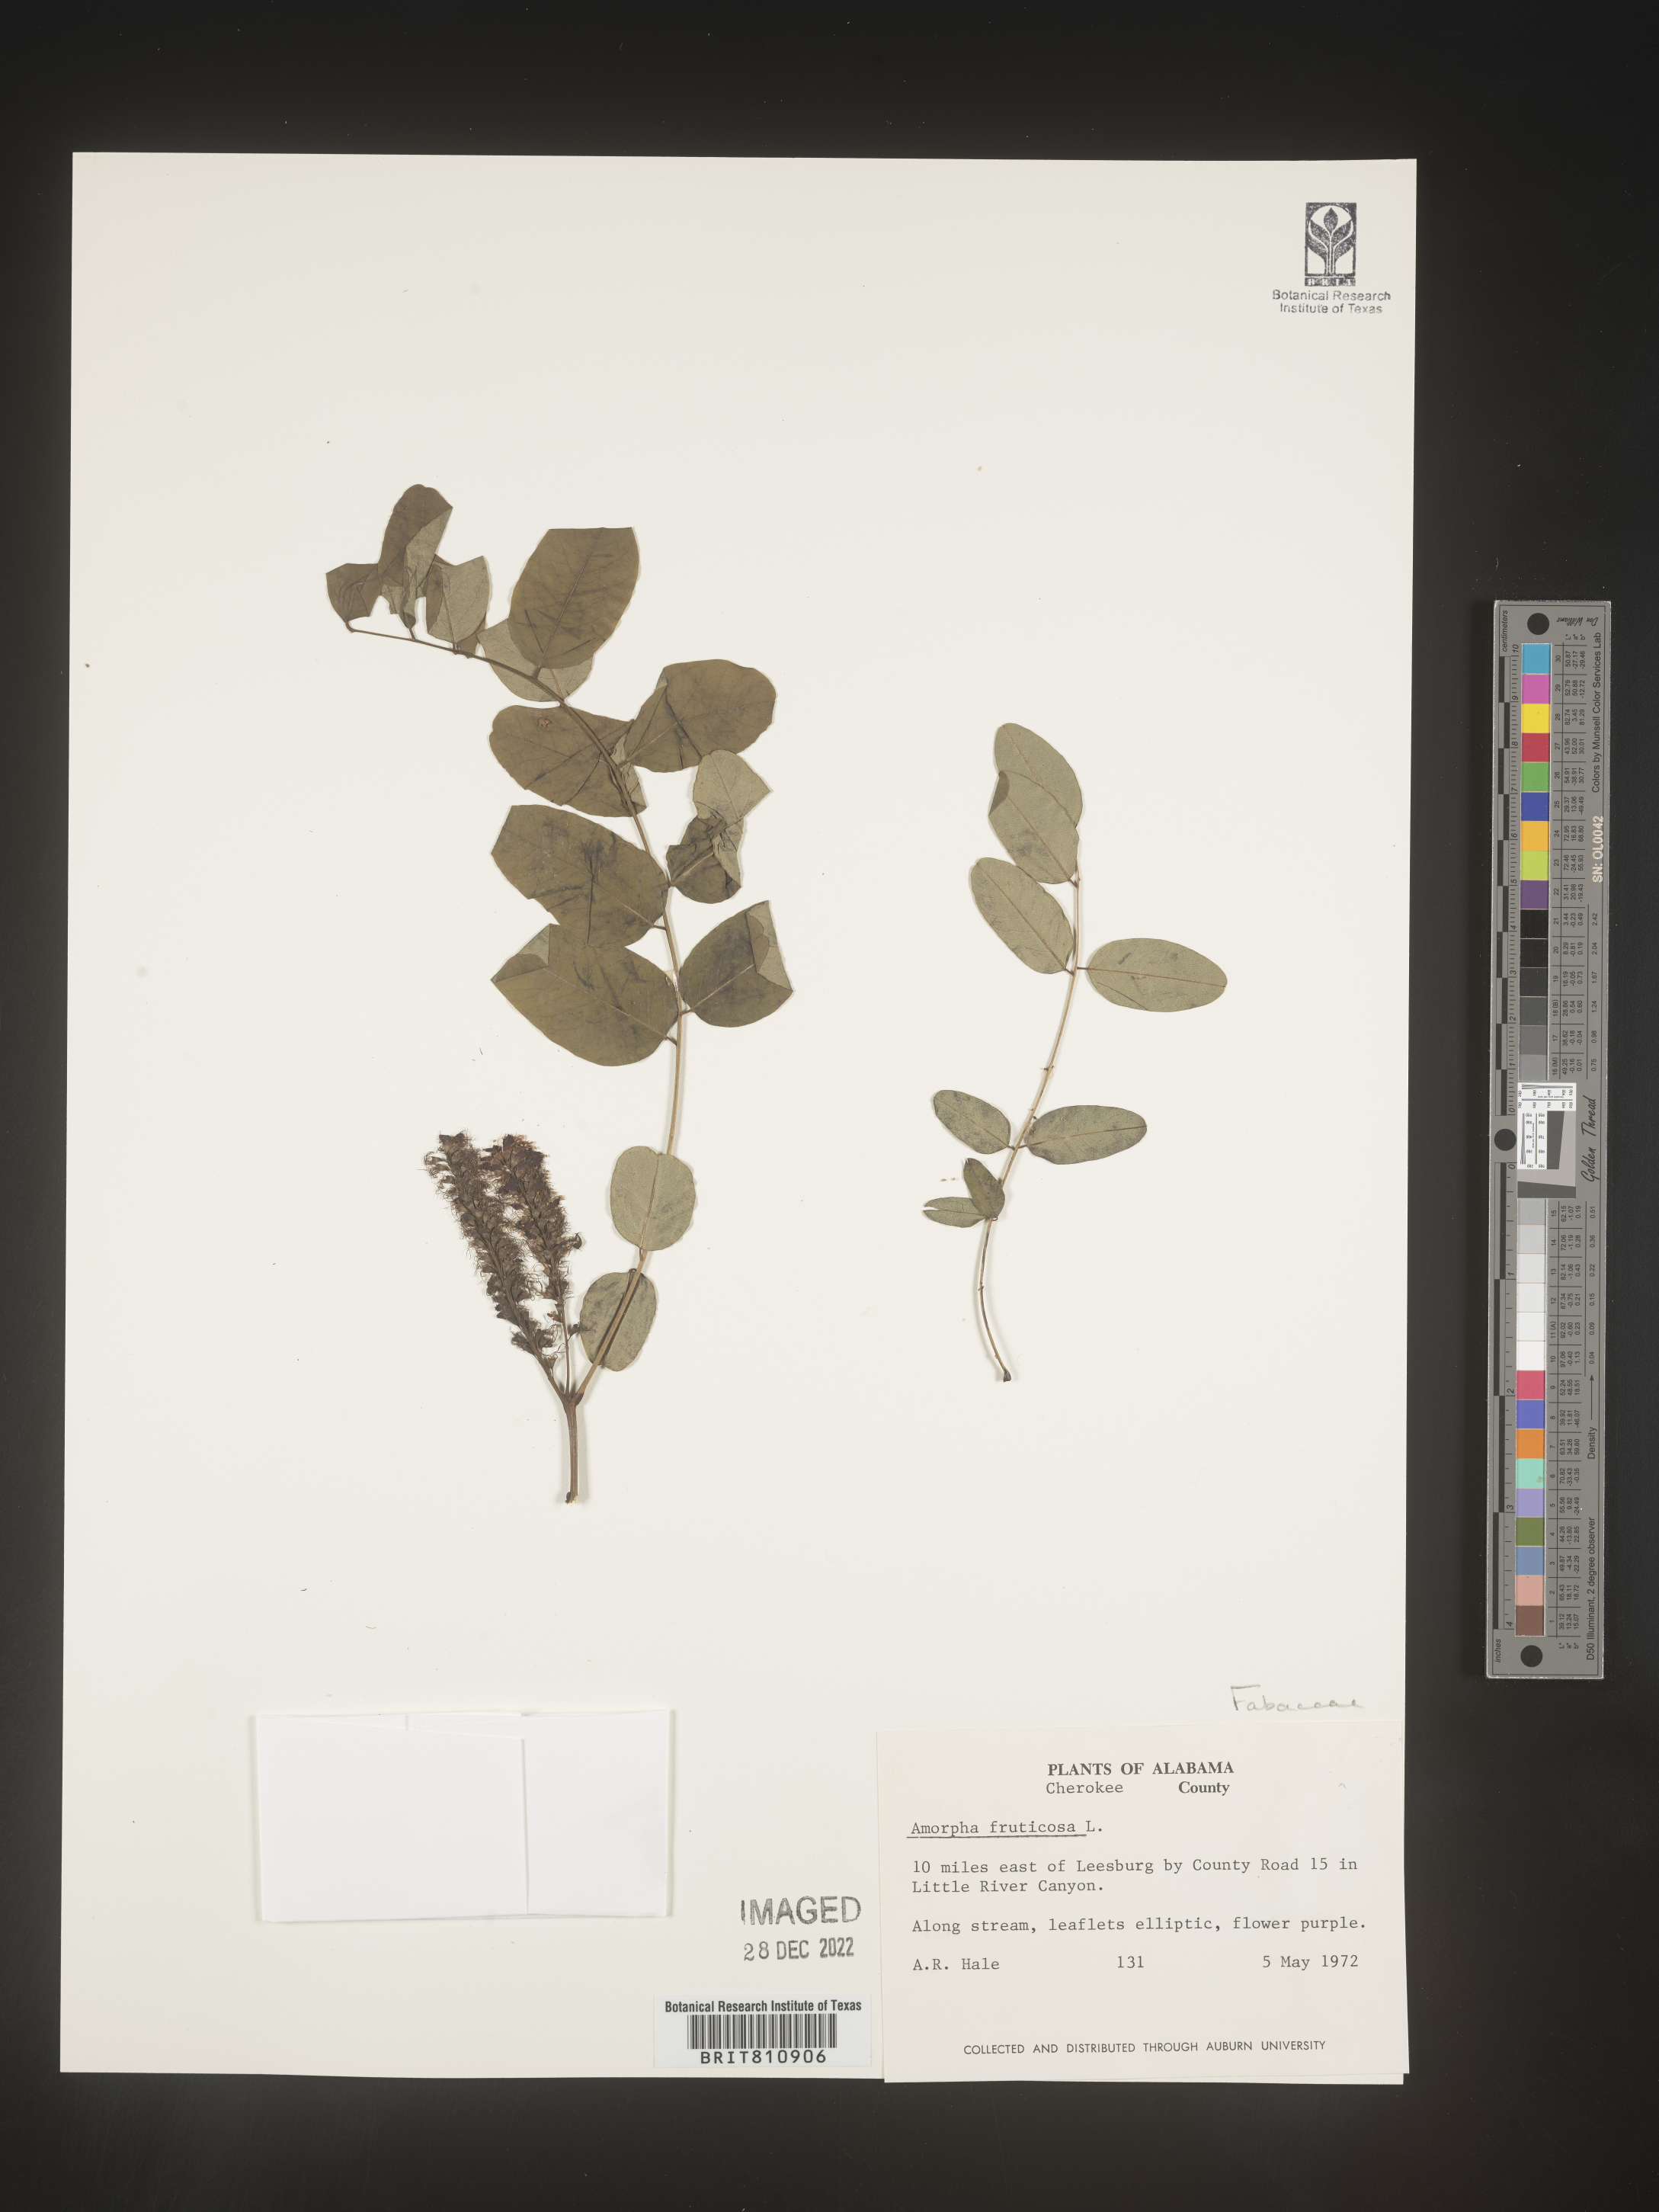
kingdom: Plantae
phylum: Tracheophyta
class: Magnoliopsida
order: Fabales
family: Fabaceae
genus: Amorpha
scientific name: Amorpha fruticosa
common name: False indigo
